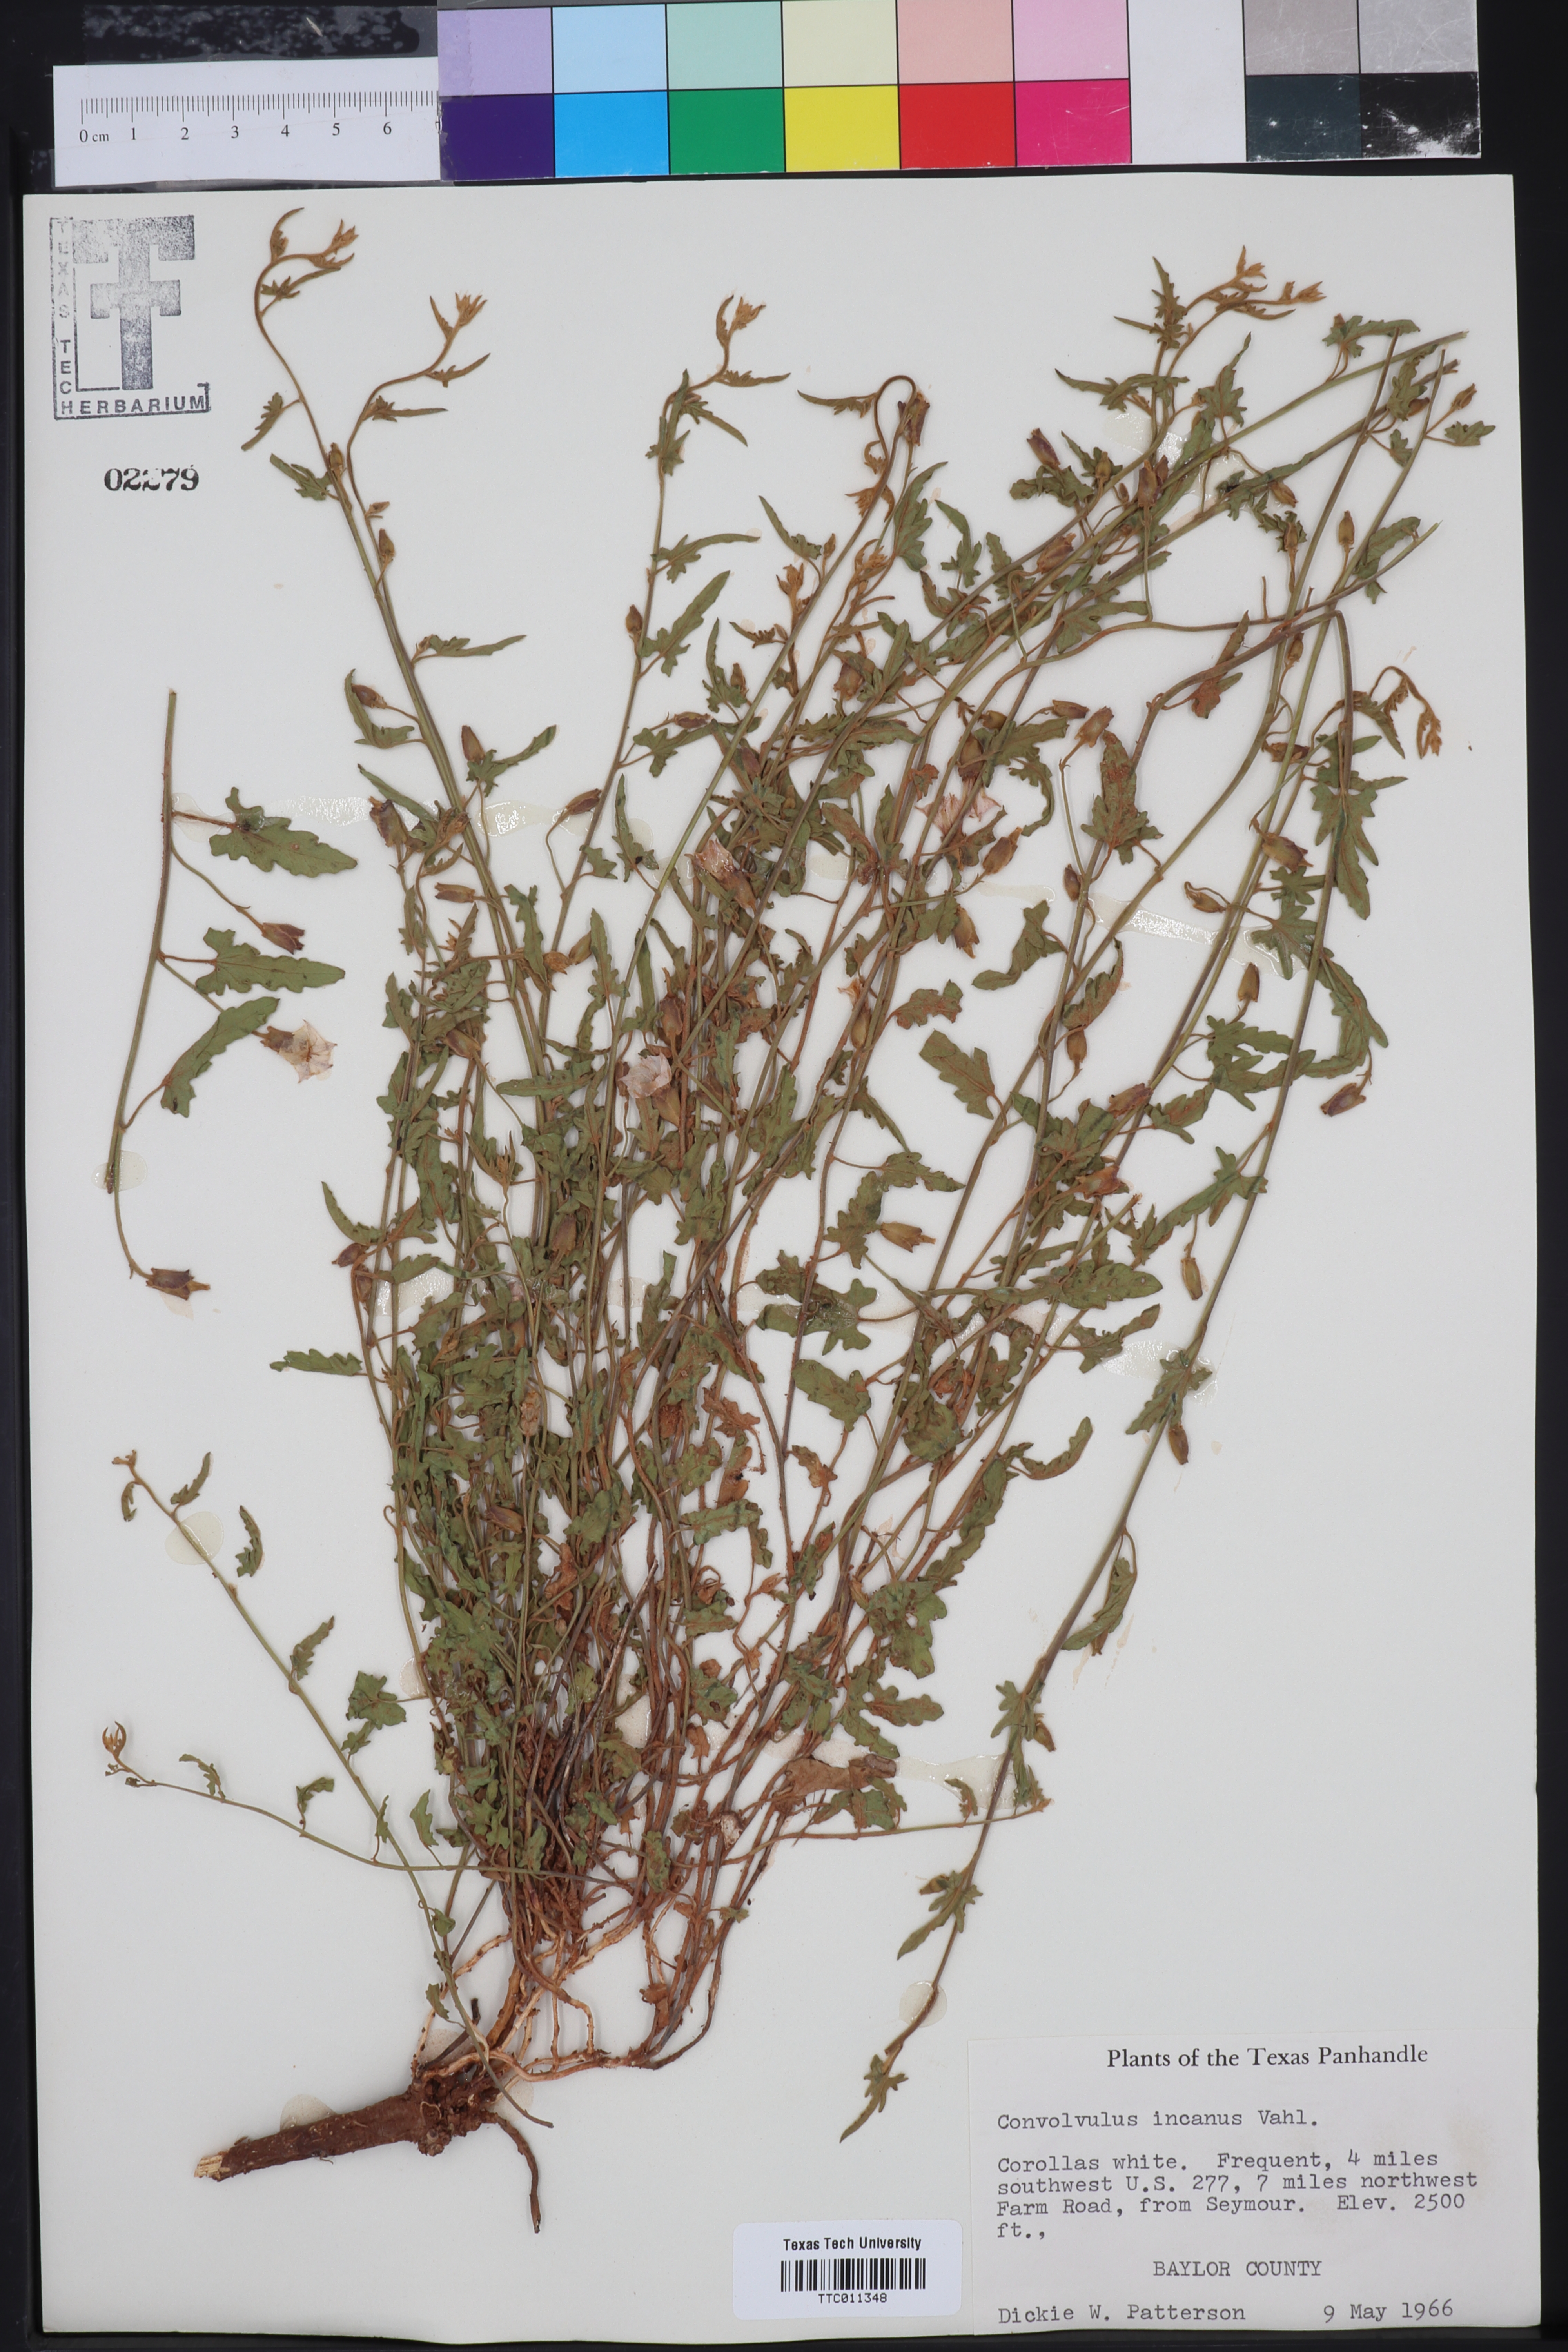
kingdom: Plantae
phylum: Tracheophyta
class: Magnoliopsida
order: Solanales
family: Convolvulaceae
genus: Convolvulus
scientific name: Convolvulus hermanniae
